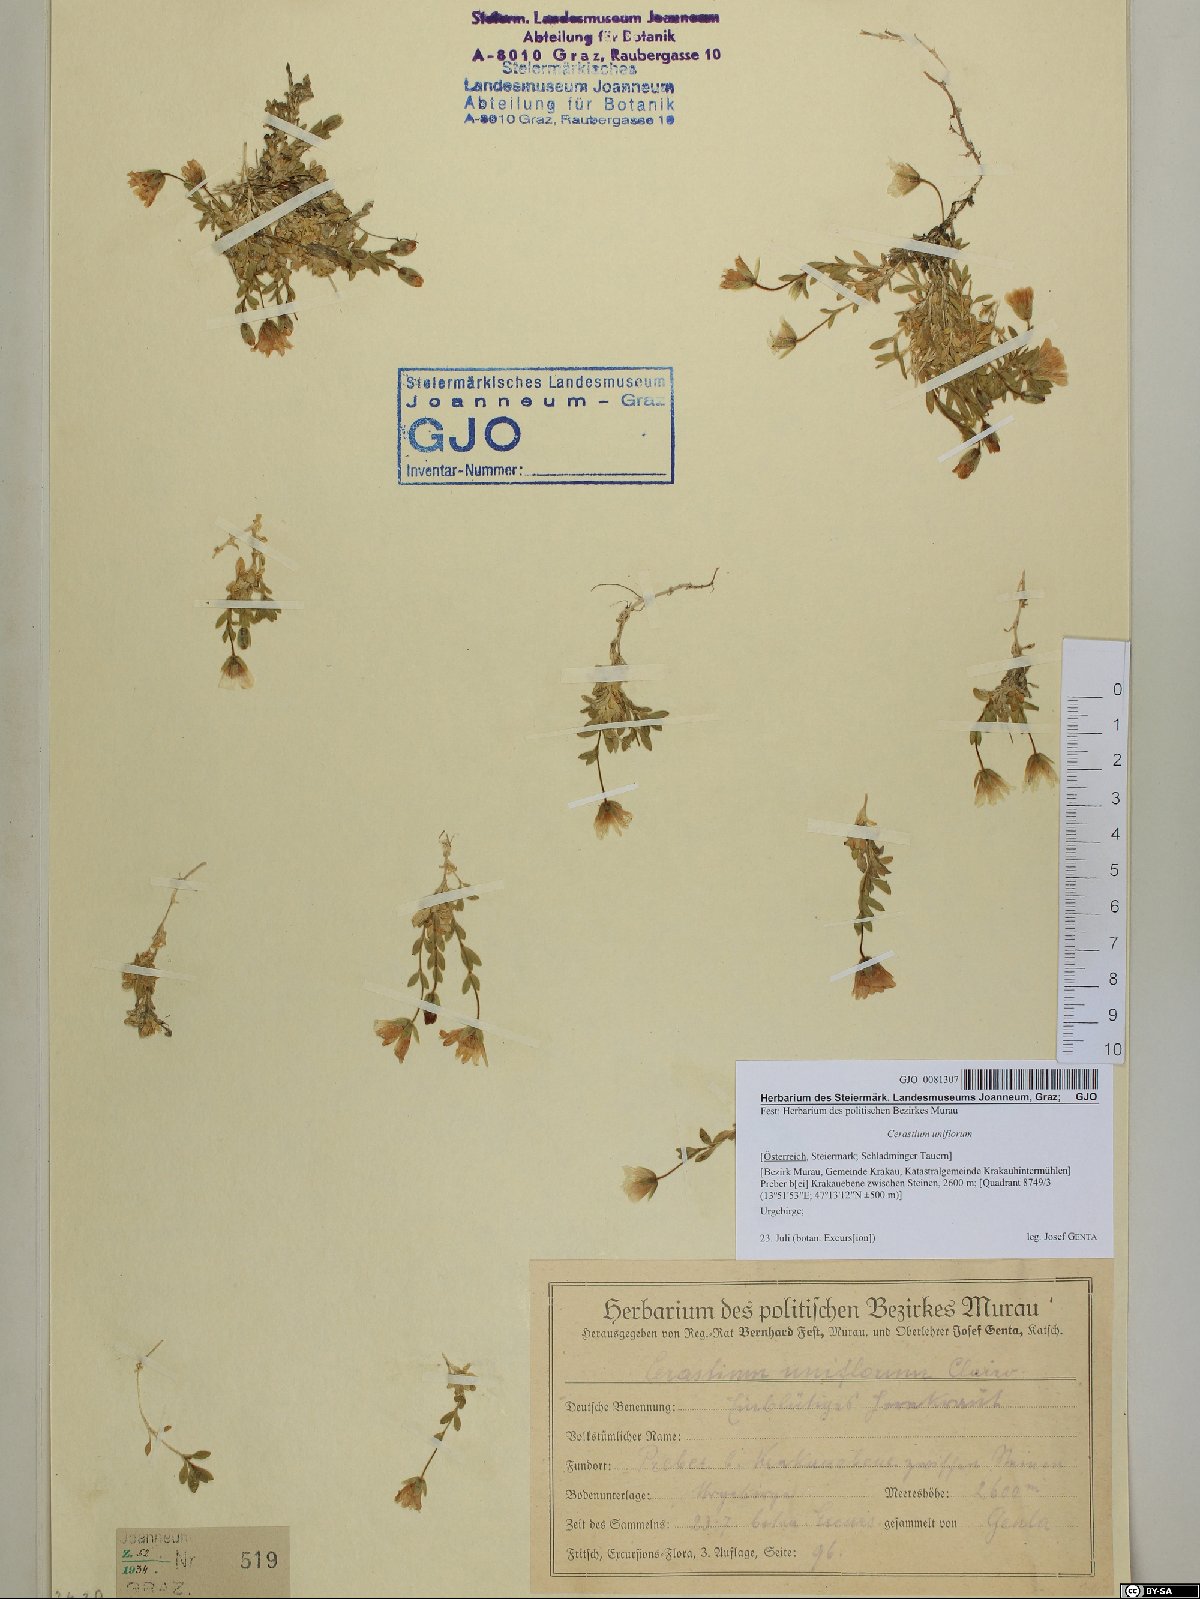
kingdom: Plantae
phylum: Tracheophyta
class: Magnoliopsida
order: Caryophyllales
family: Caryophyllaceae
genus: Cerastium
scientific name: Cerastium uniflorum
